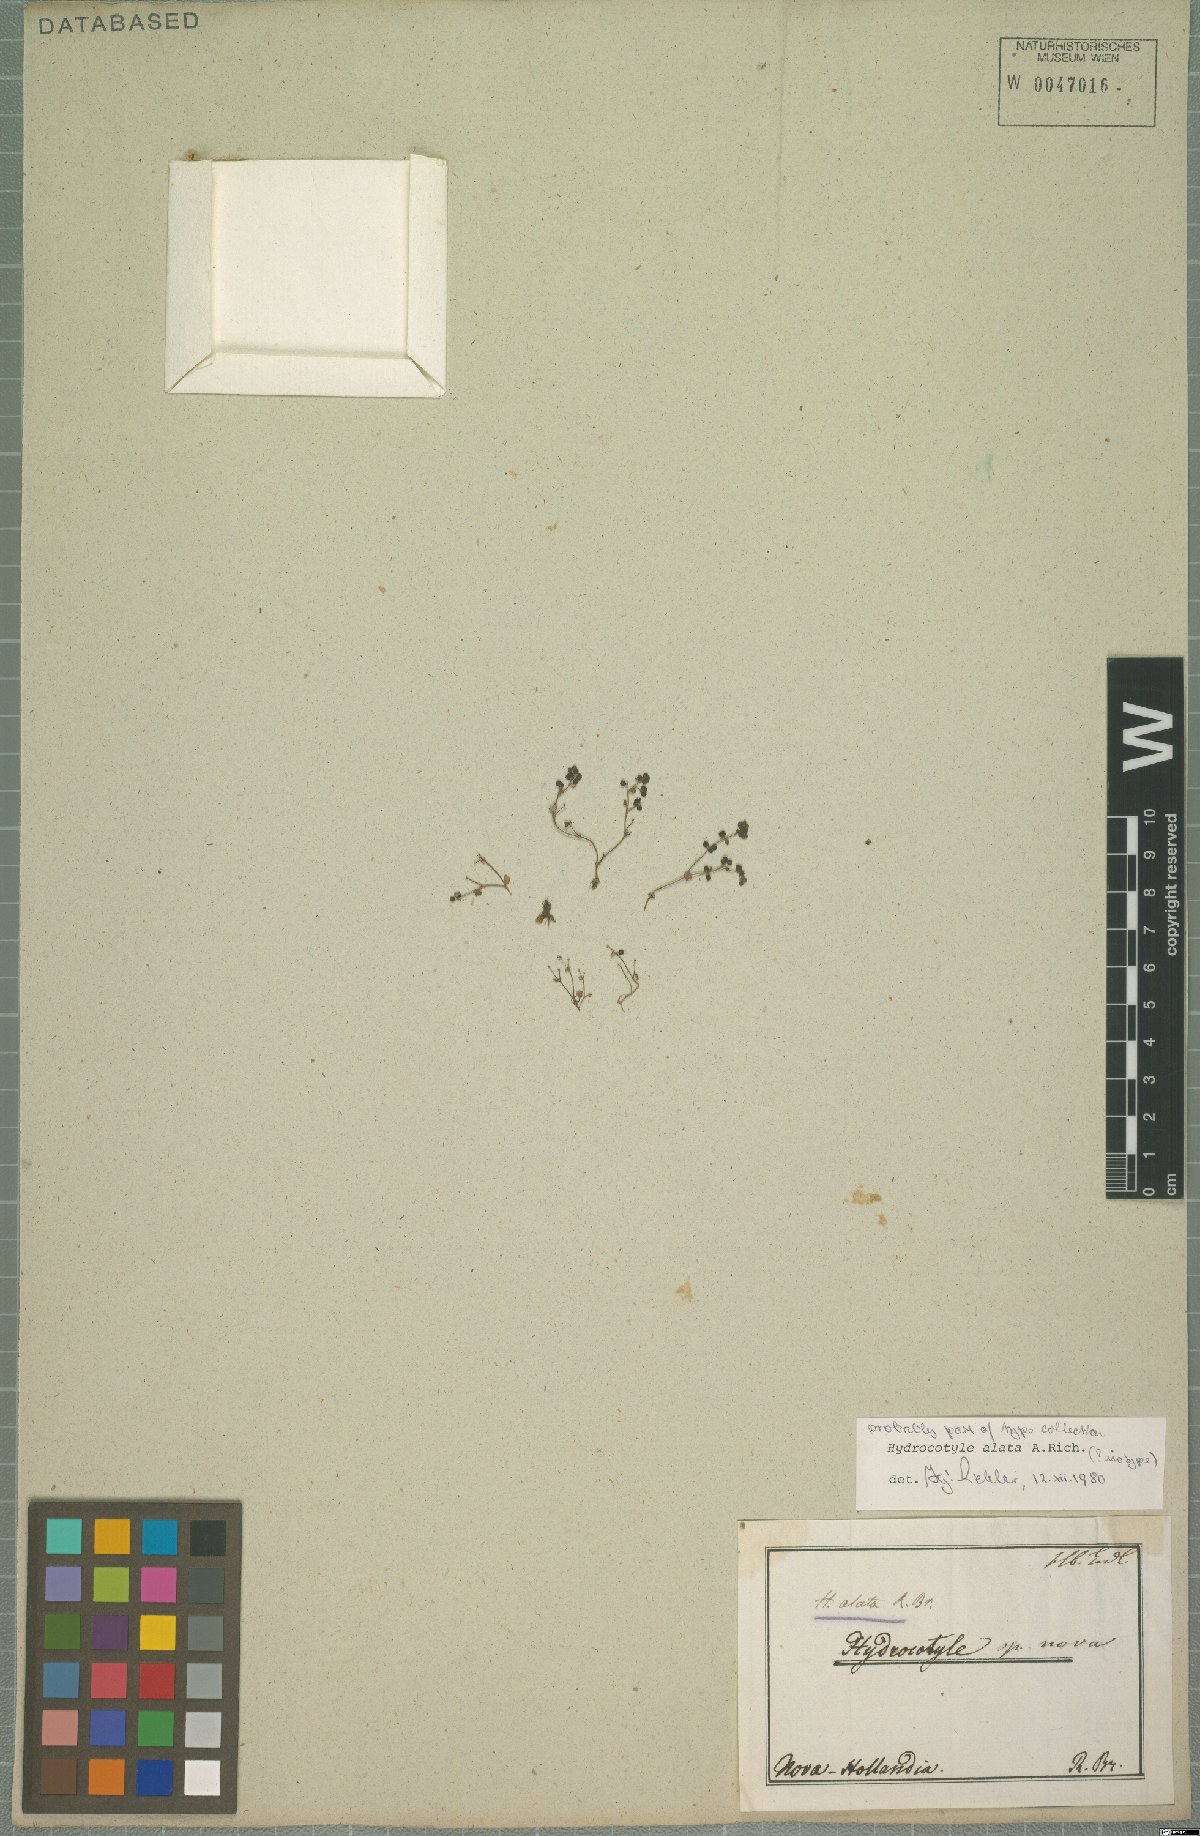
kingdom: Plantae
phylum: Tracheophyta
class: Magnoliopsida
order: Apiales
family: Araliaceae
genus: Hydrocotyle
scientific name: Hydrocotyle alata
